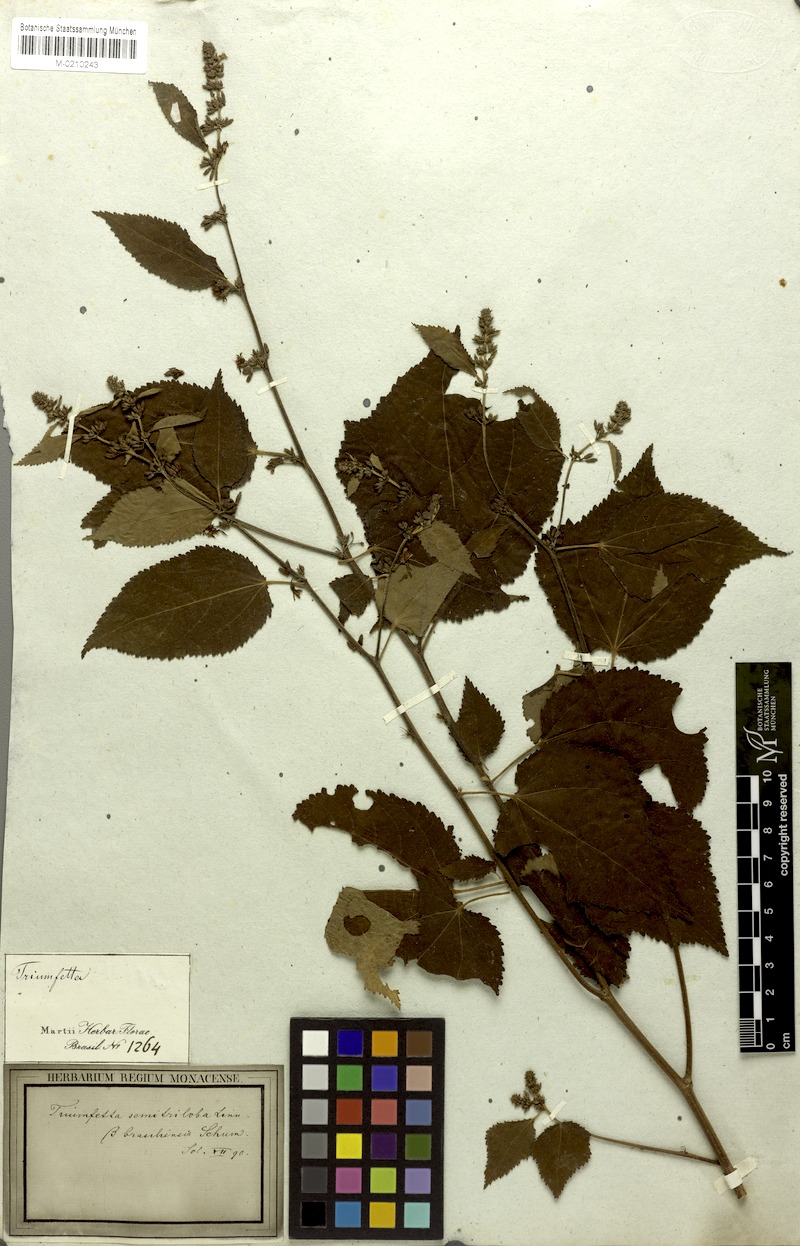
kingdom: Plantae
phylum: Tracheophyta
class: Magnoliopsida
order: Malvales
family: Malvaceae
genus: Triumfetta
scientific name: Triumfetta semitriloba
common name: Sacramento burbark
